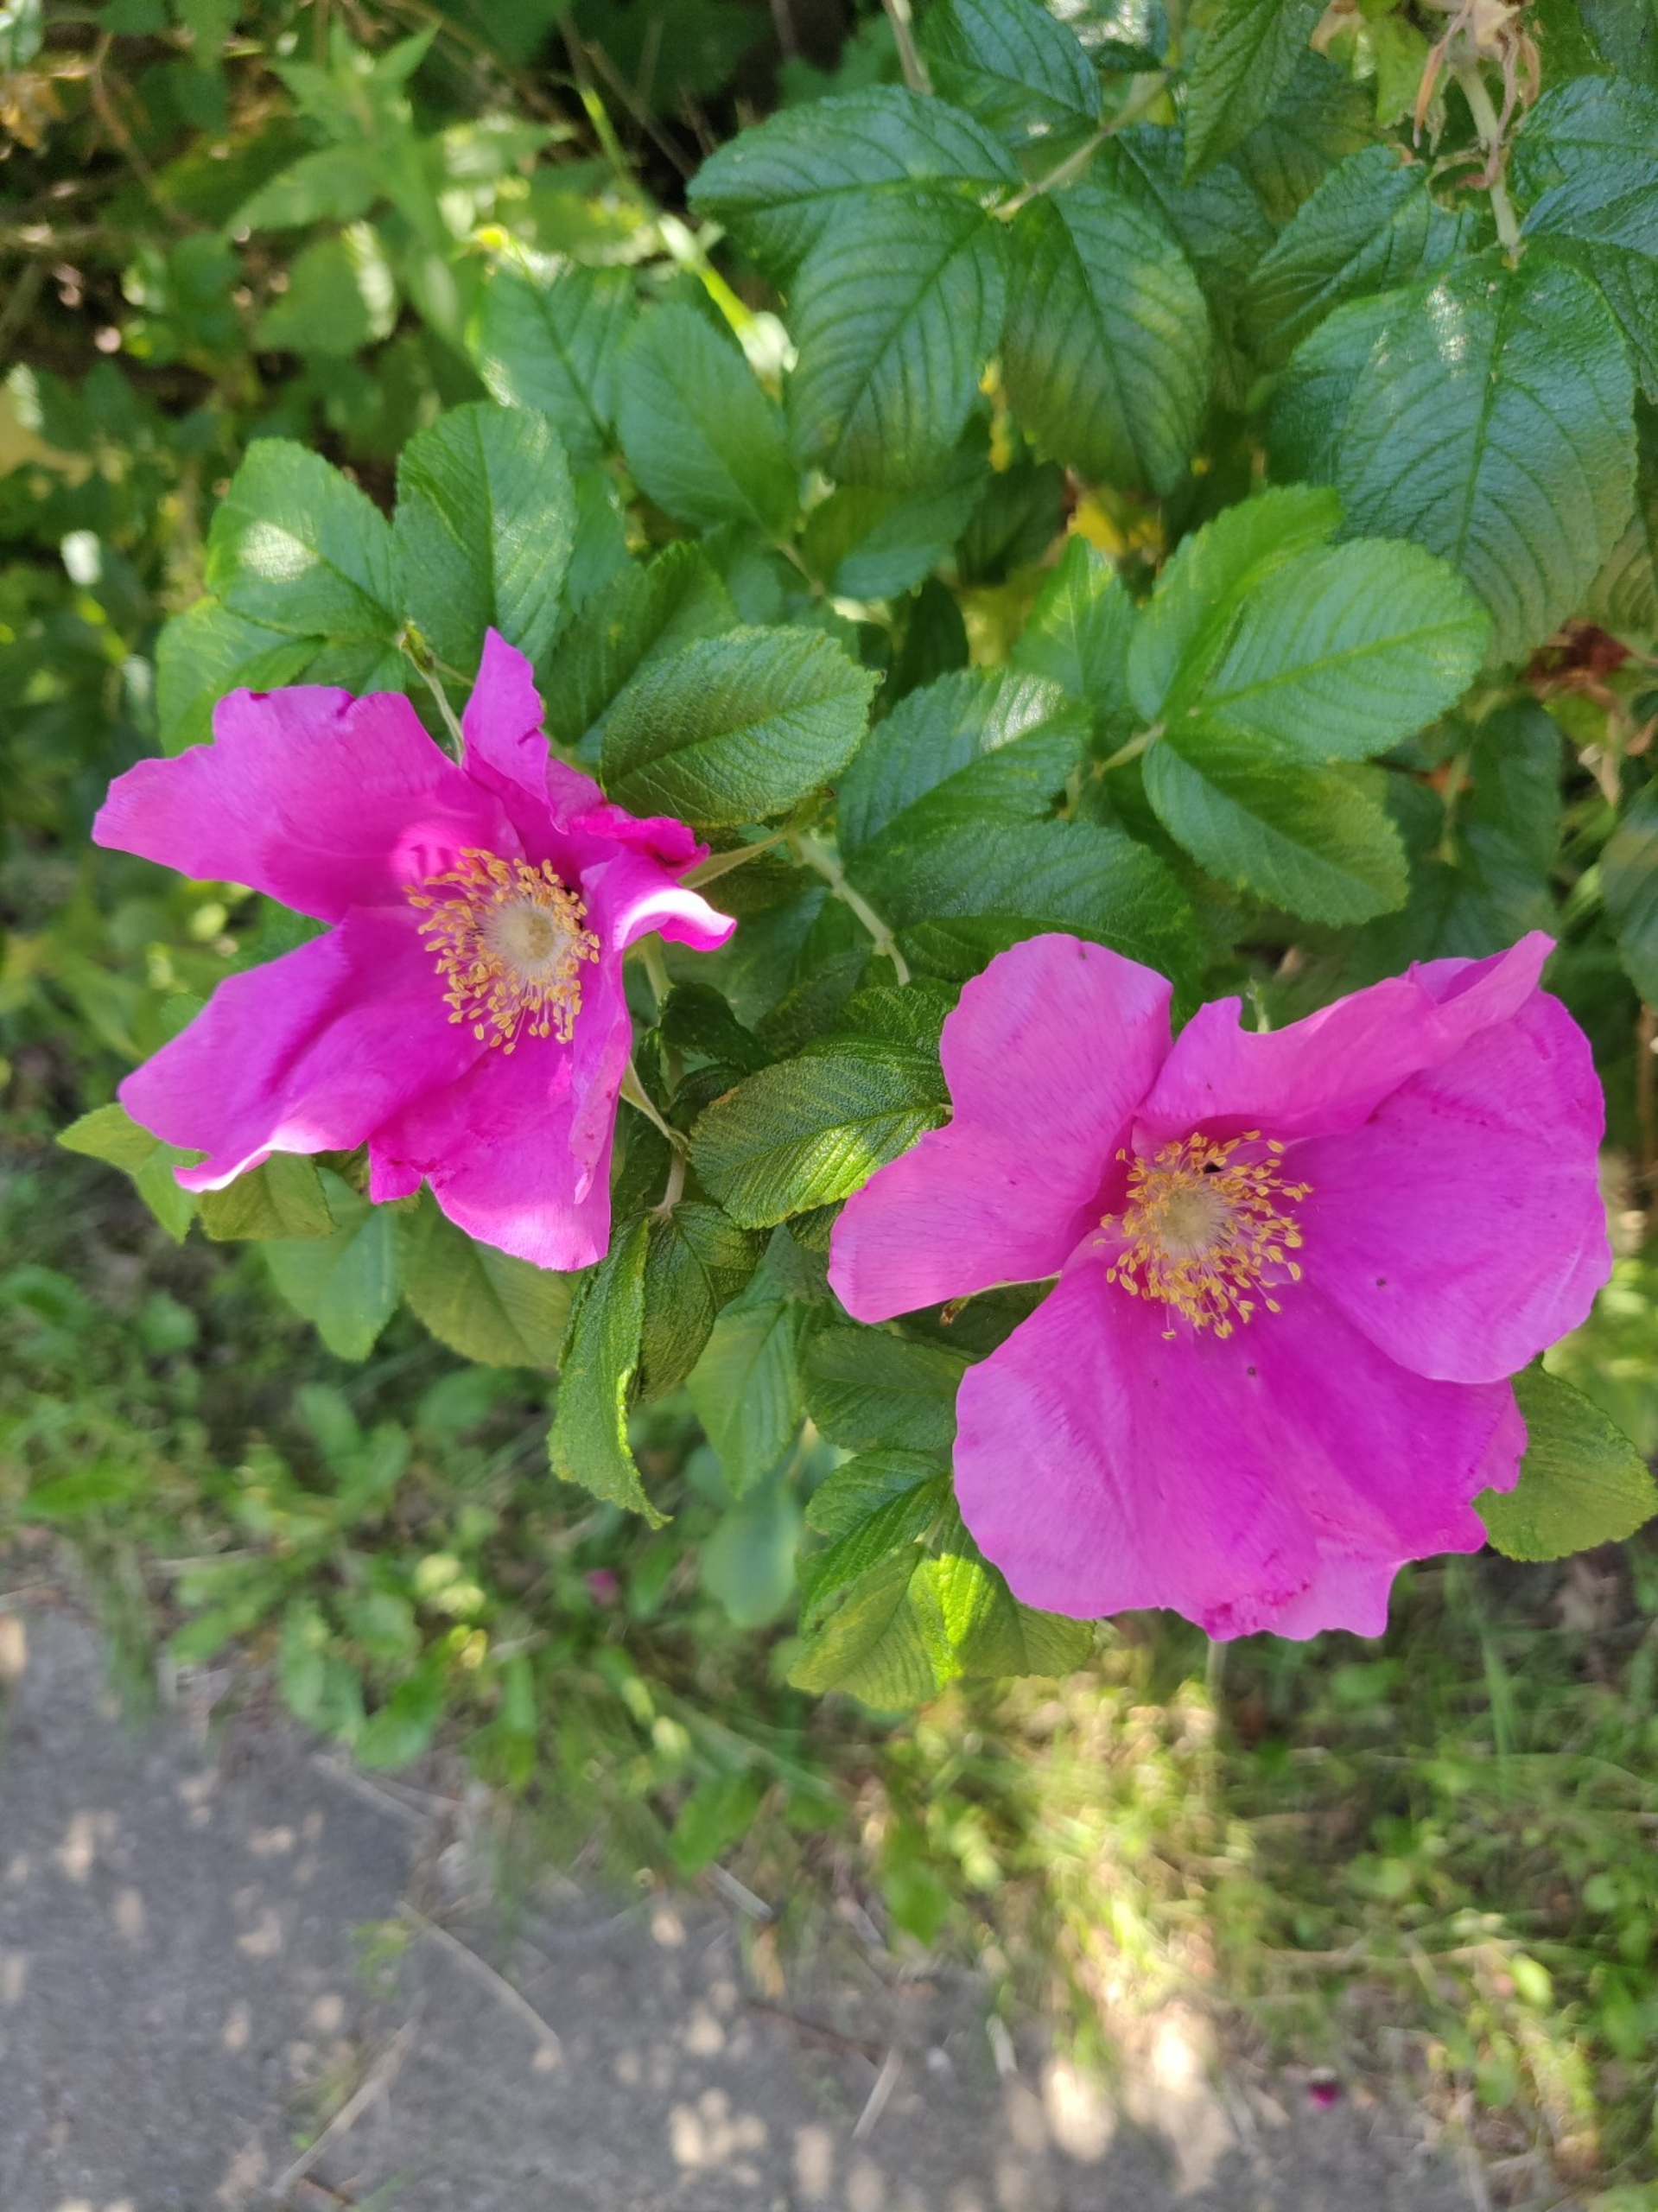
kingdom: Plantae
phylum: Tracheophyta
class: Magnoliopsida
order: Rosales
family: Rosaceae
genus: Rosa
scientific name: Rosa rugosa
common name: Rynket rose
